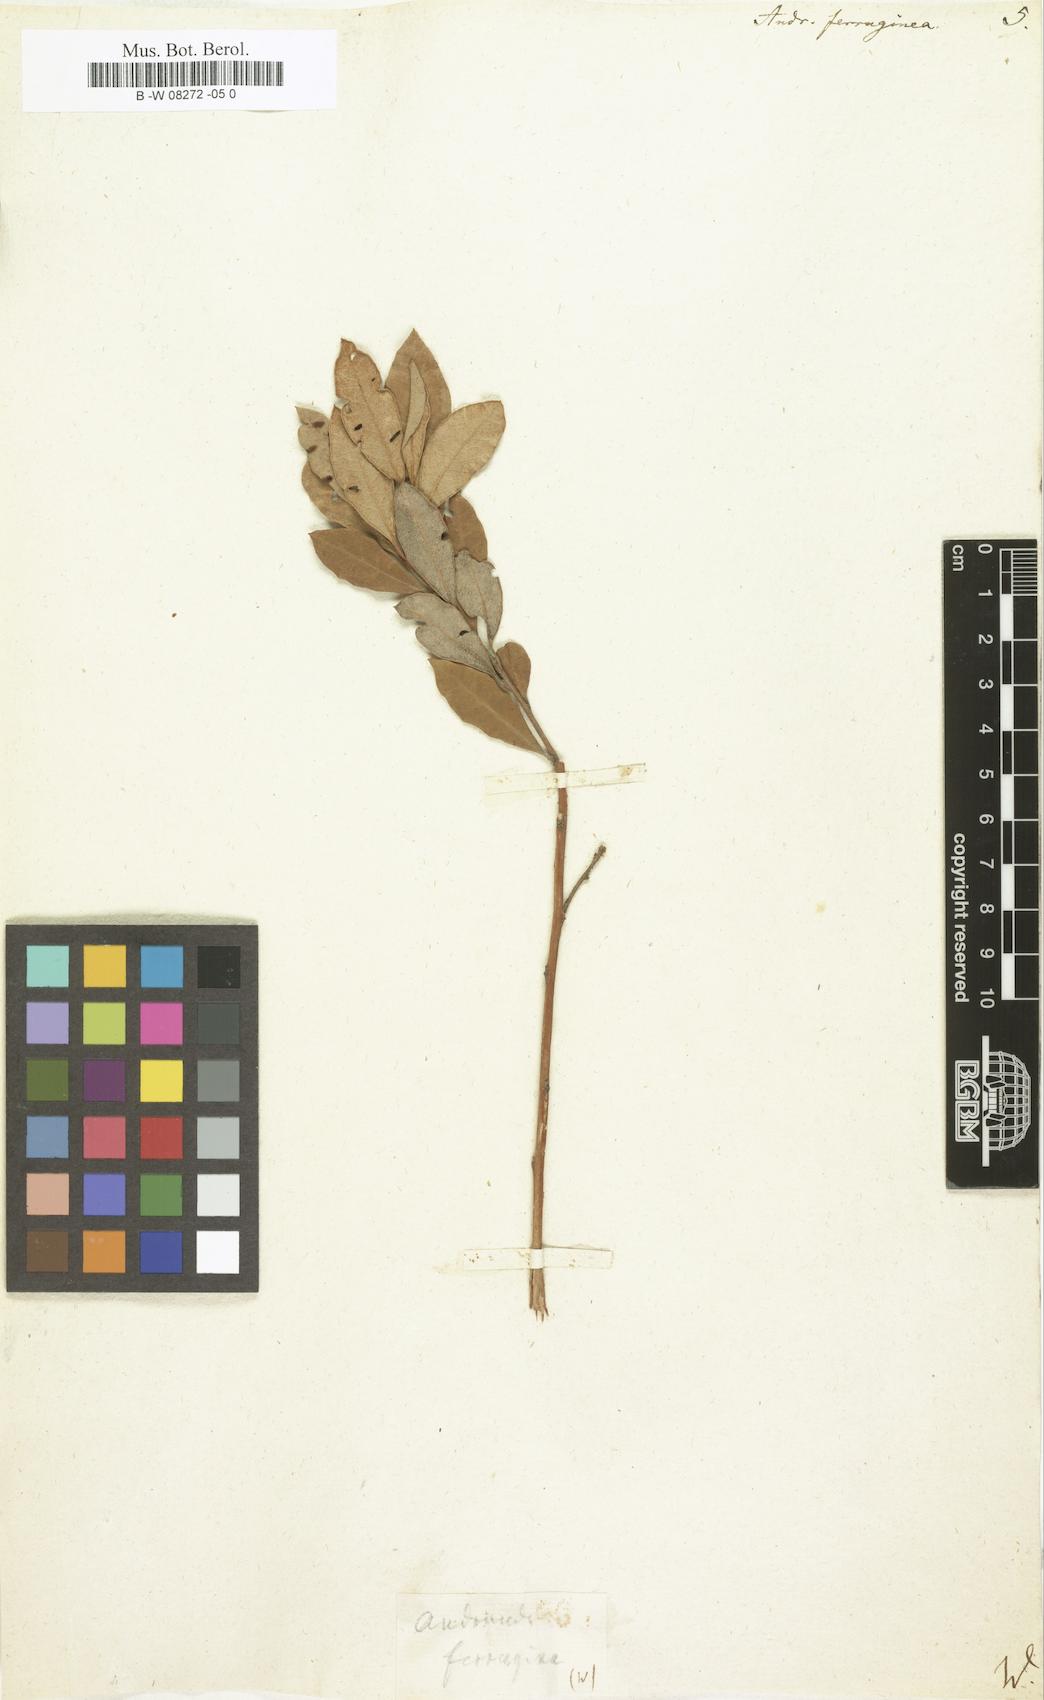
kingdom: Plantae
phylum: Tracheophyta
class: Magnoliopsida
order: Ericales
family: Ericaceae
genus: Lyonia
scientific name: Lyonia ferruginea
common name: Rusty lyonia
